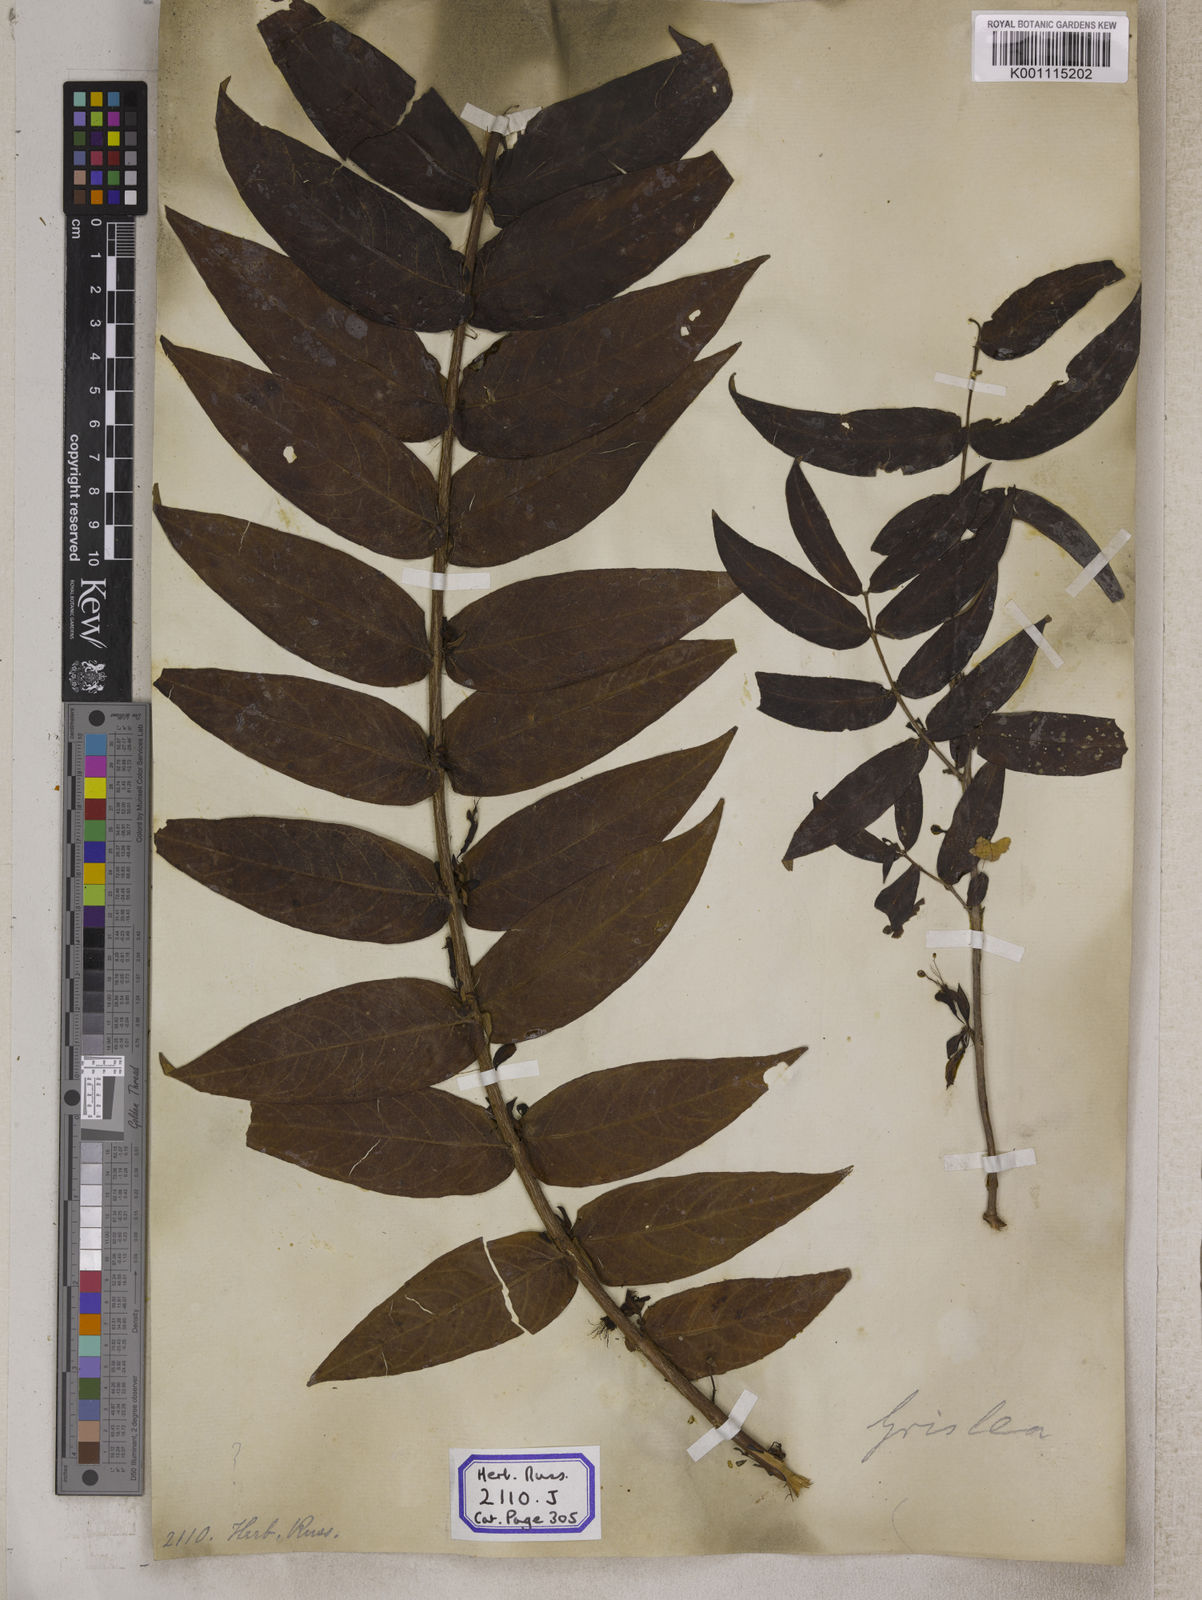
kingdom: Plantae
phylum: Tracheophyta
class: Magnoliopsida
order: Myrtales
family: Combretaceae
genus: Combretum
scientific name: Combretum
